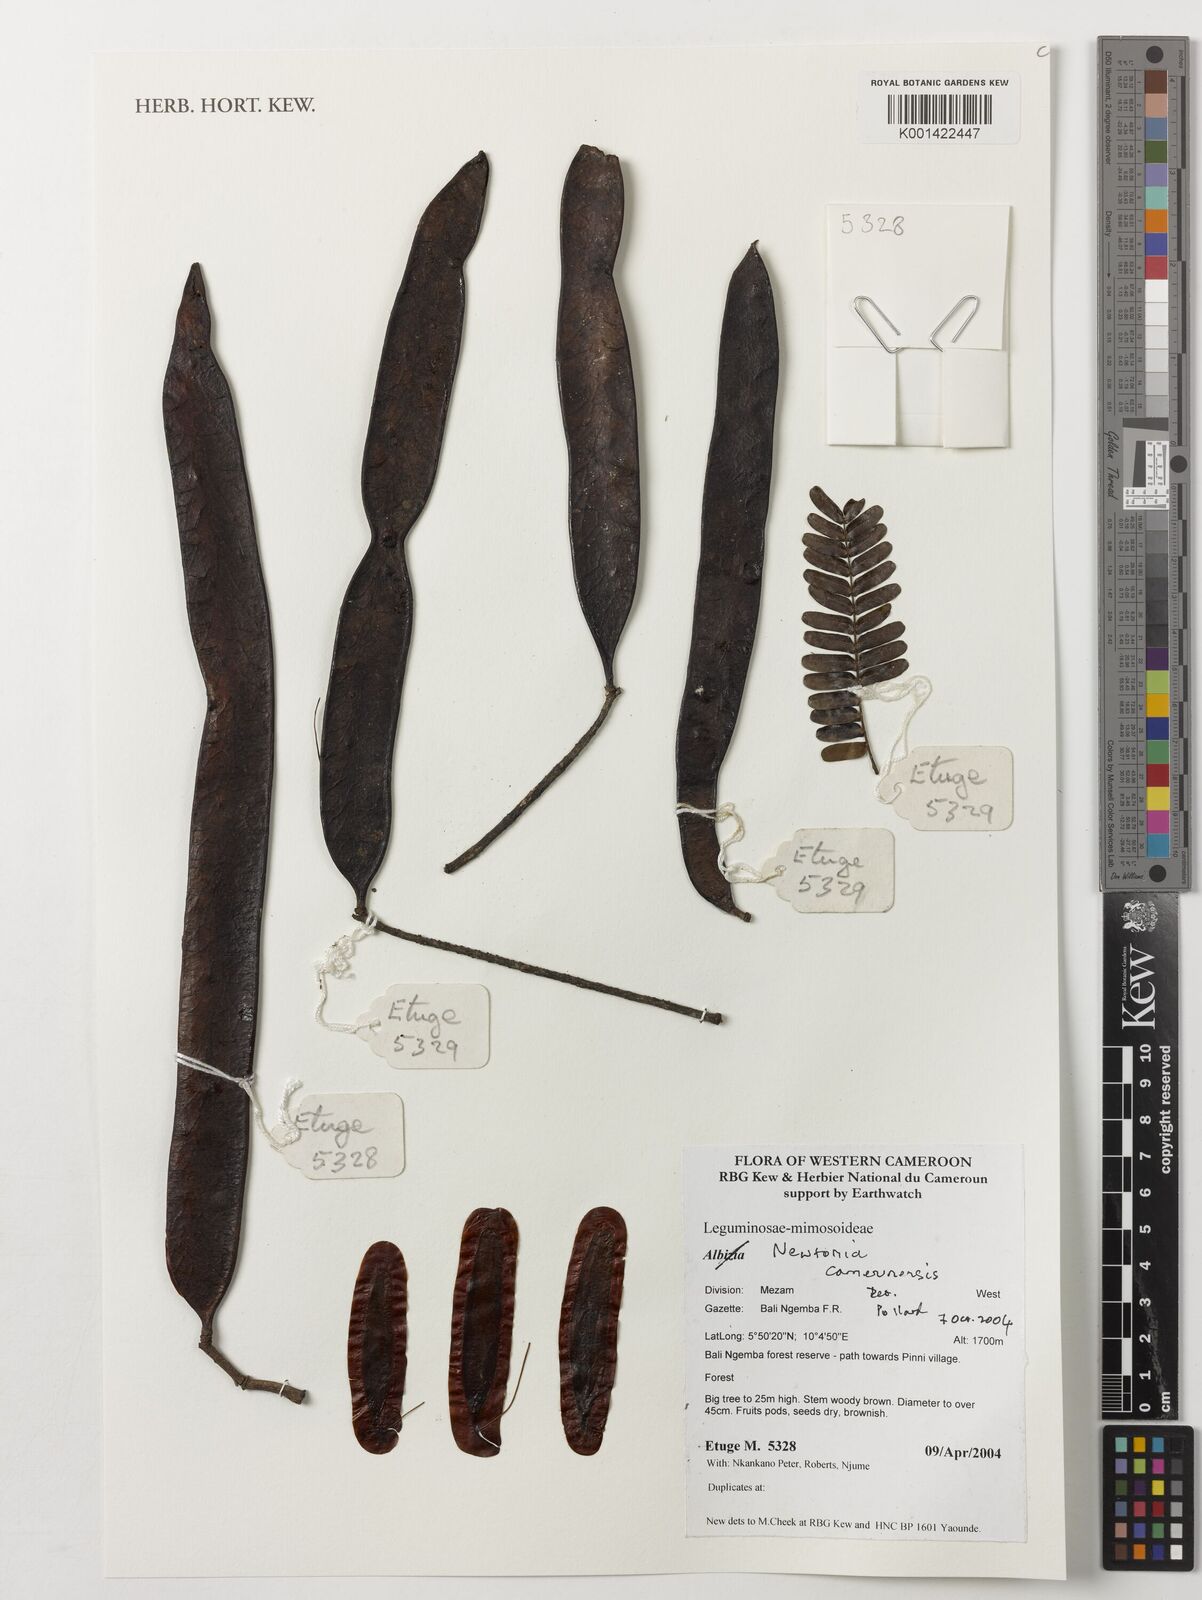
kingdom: Plantae
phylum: Tracheophyta
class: Magnoliopsida
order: Fabales
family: Fabaceae
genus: Newtonia
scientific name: Newtonia camerunensis
